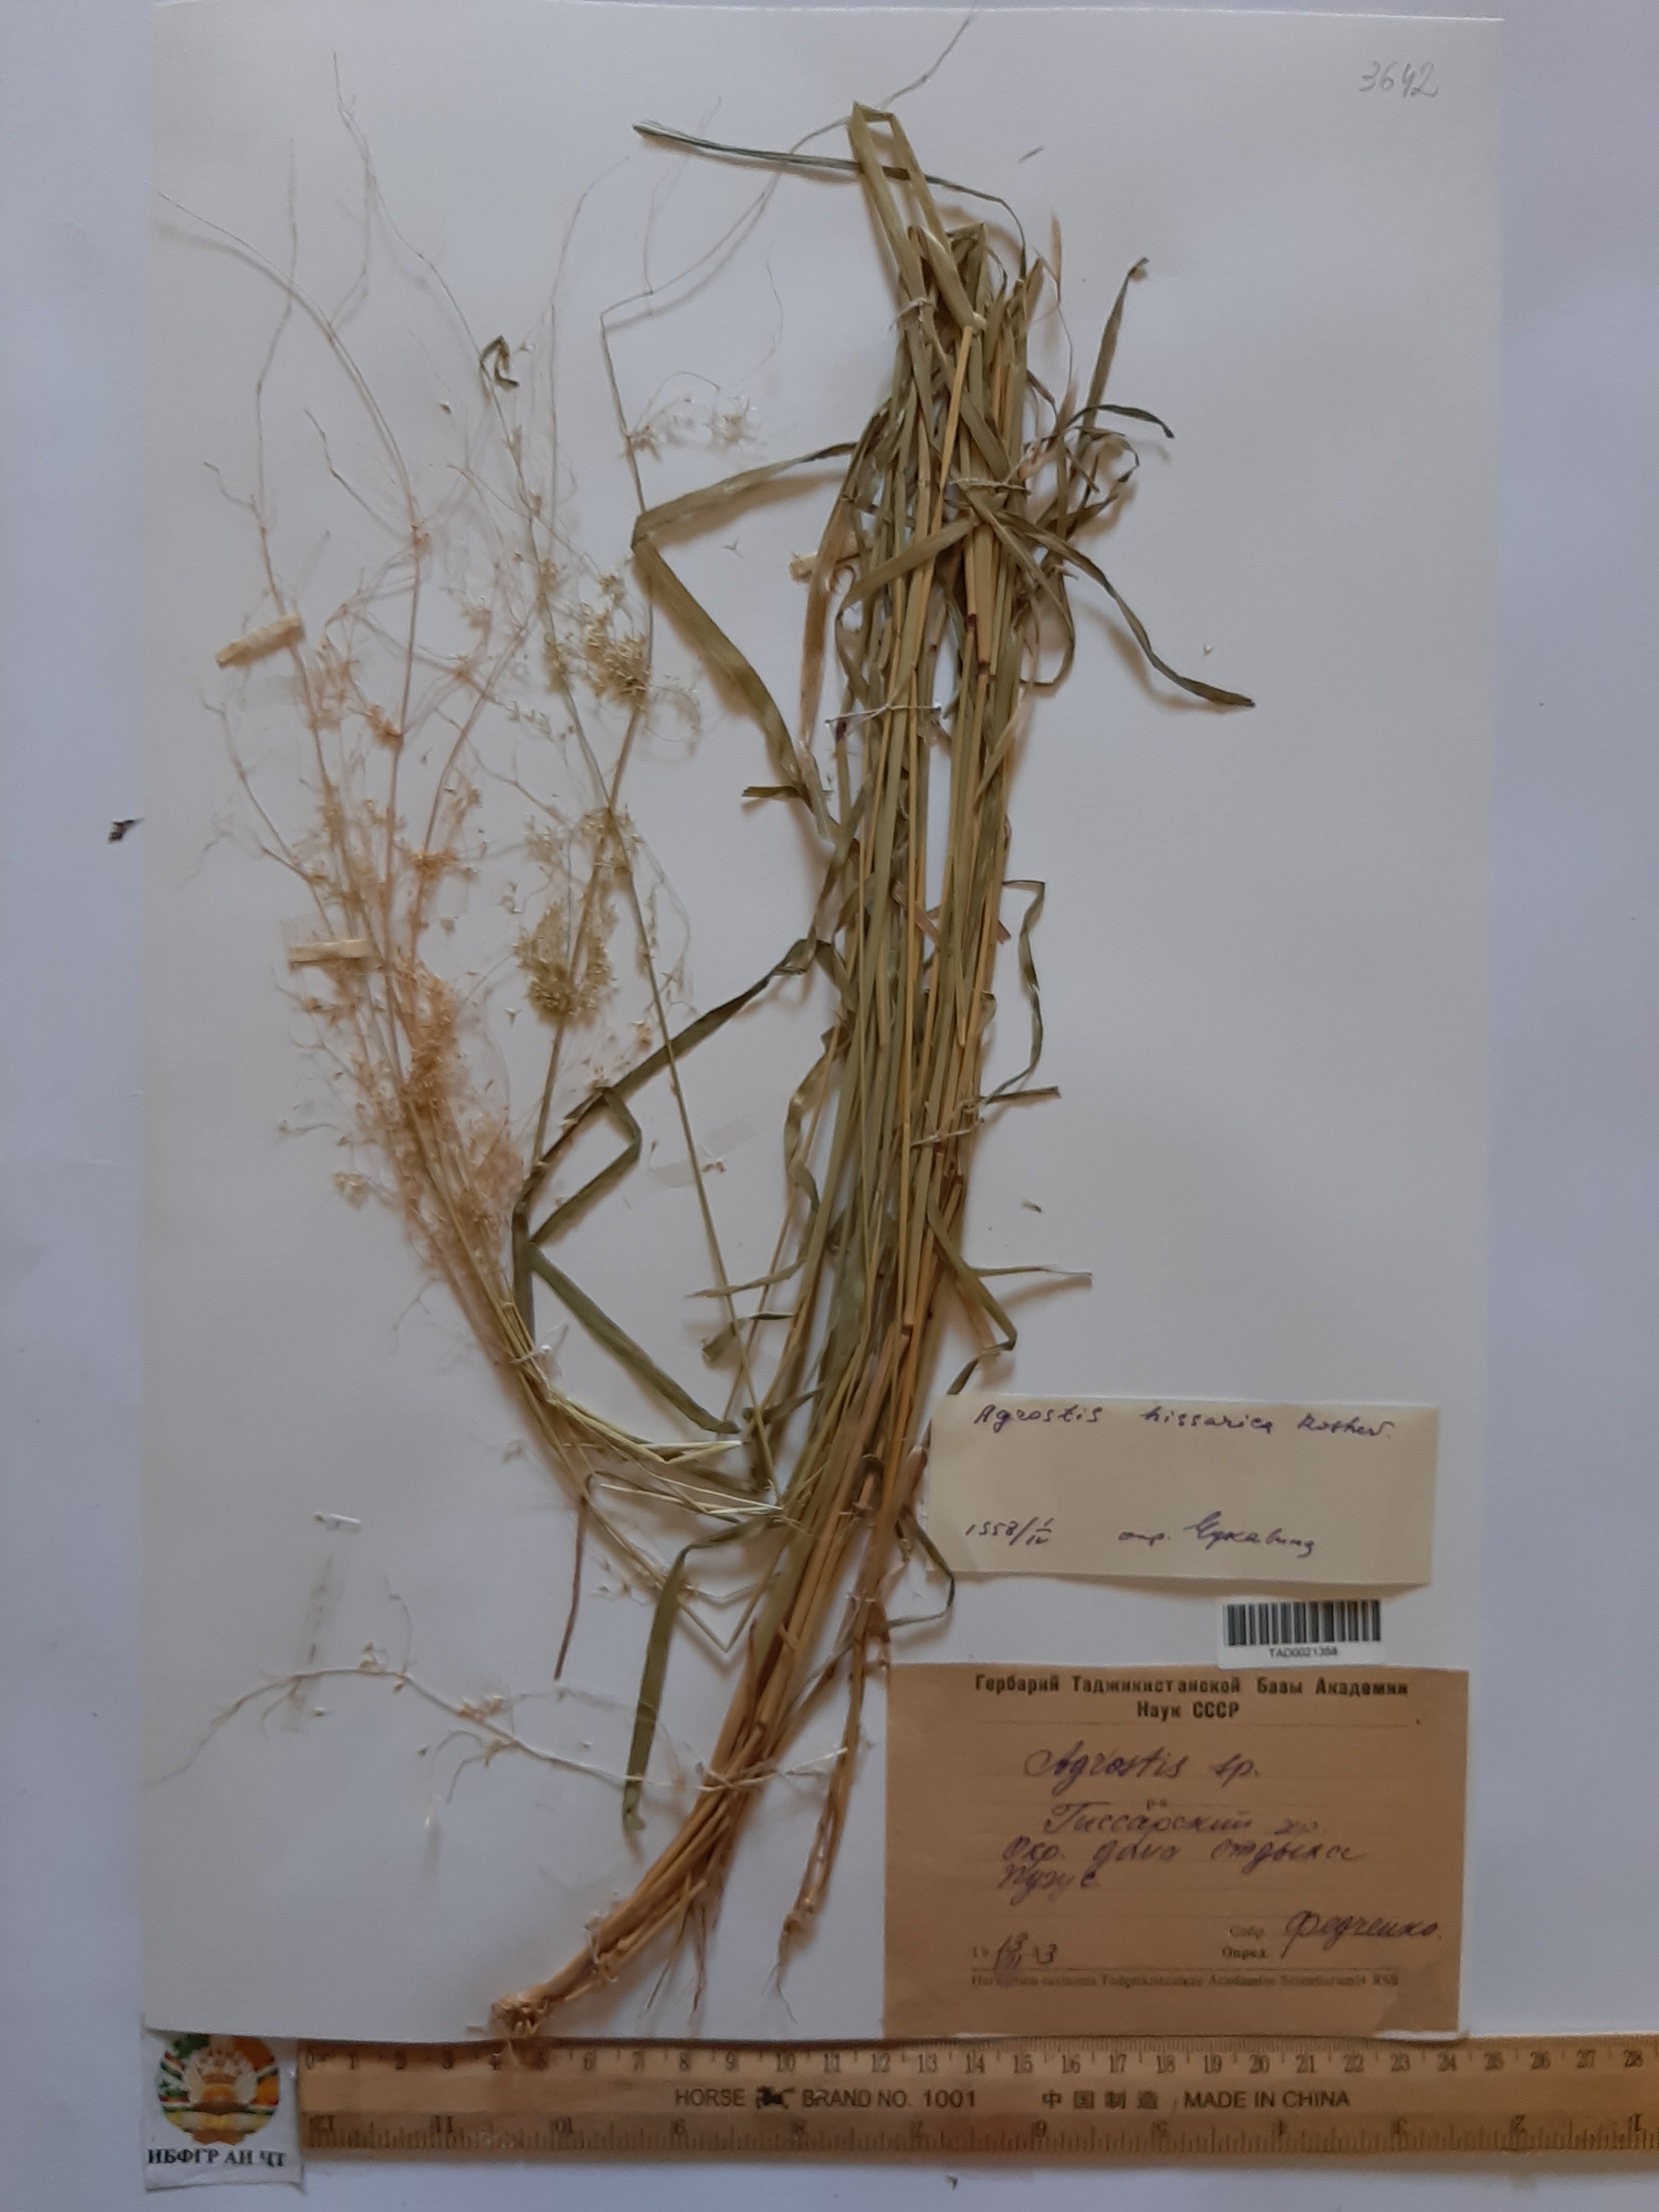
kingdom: Plantae
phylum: Tracheophyta
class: Liliopsida
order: Poales
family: Poaceae
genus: Polypogon
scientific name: Polypogon hissaricus
